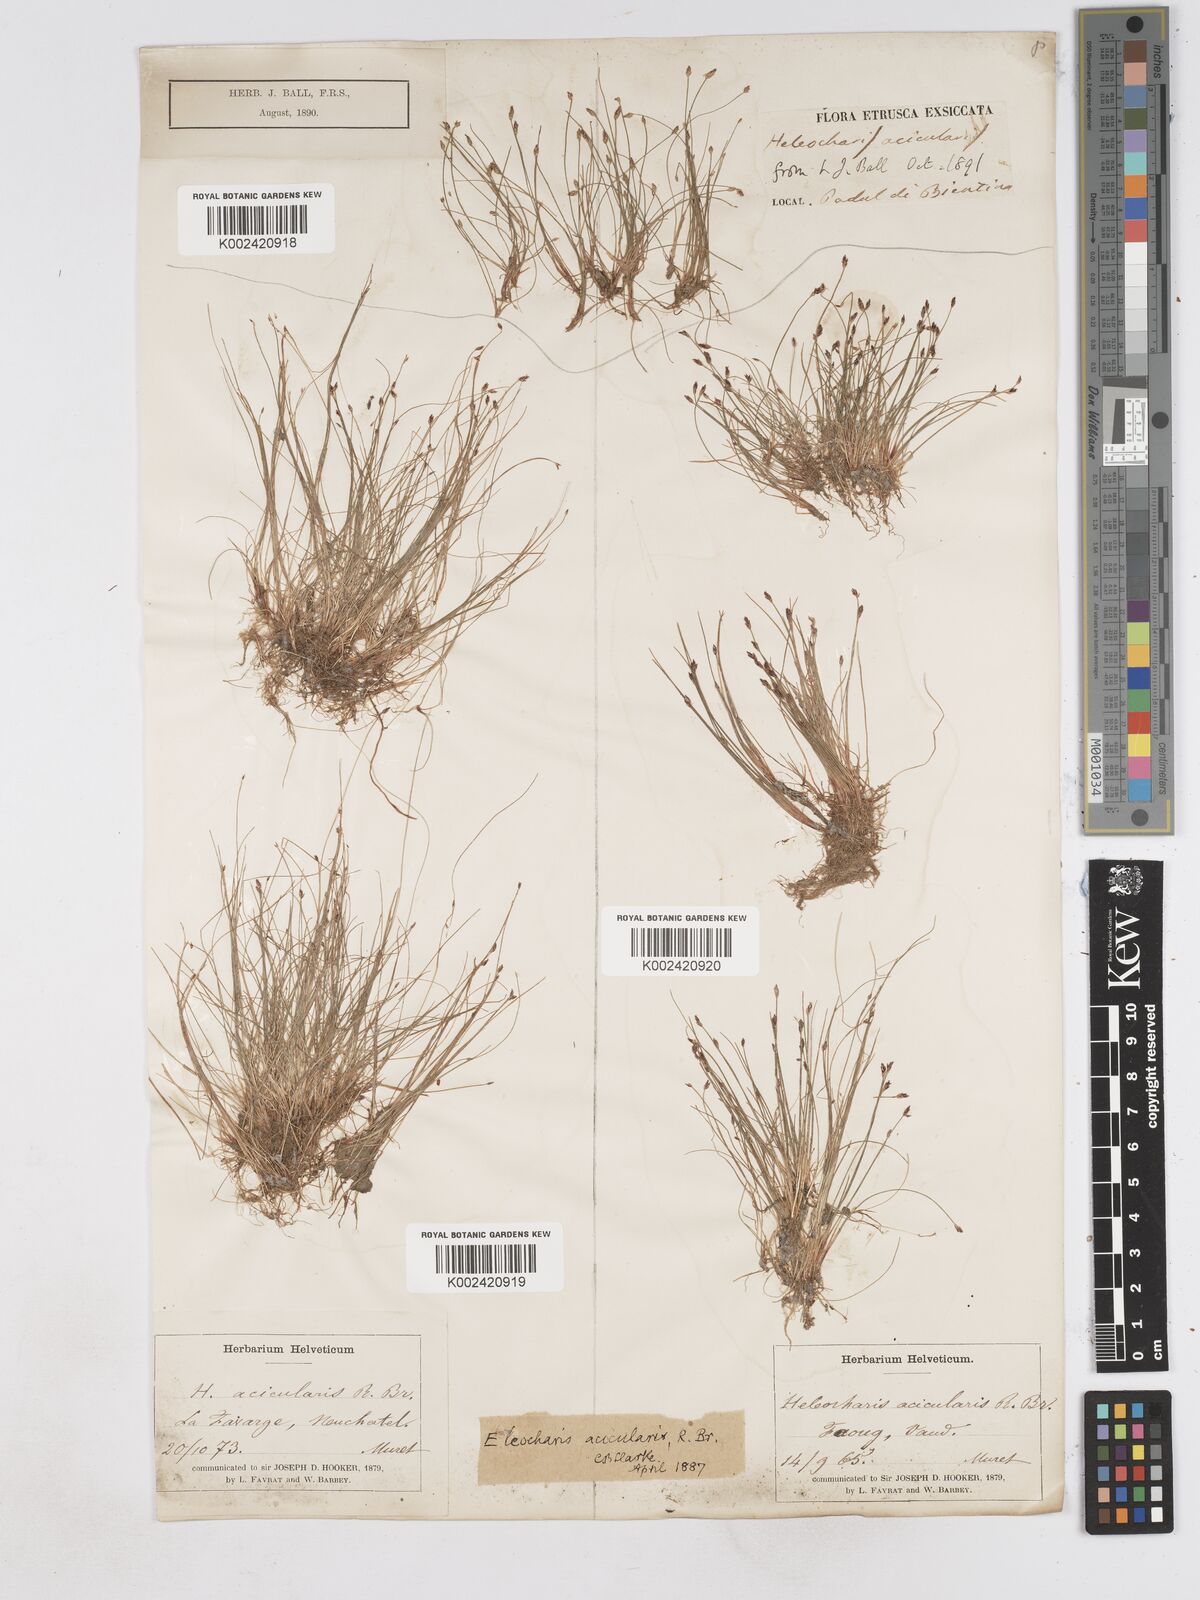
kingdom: Plantae
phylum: Tracheophyta
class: Liliopsida
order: Poales
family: Cyperaceae
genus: Eleocharis
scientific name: Eleocharis acicularis
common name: Needle spike-rush
